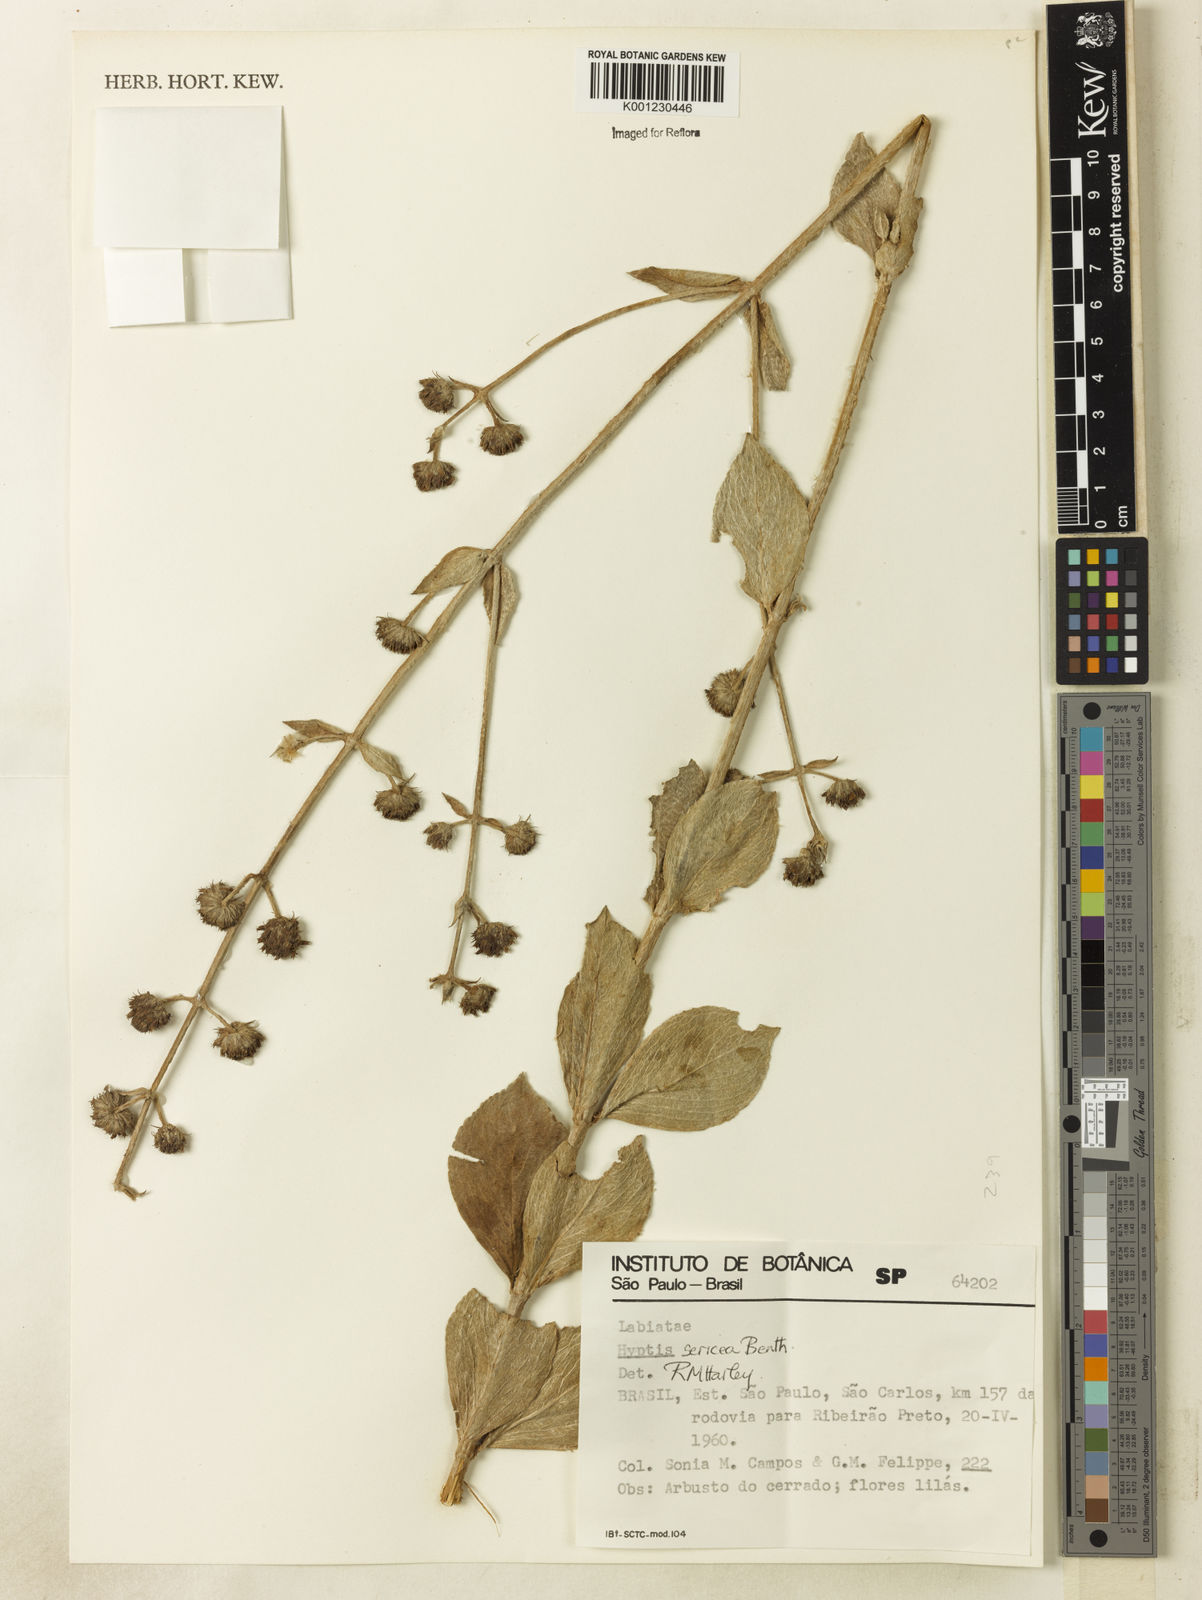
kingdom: Plantae
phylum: Tracheophyta
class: Magnoliopsida
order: Lamiales
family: Lamiaceae
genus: Hyptis
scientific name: Hyptis sericea
